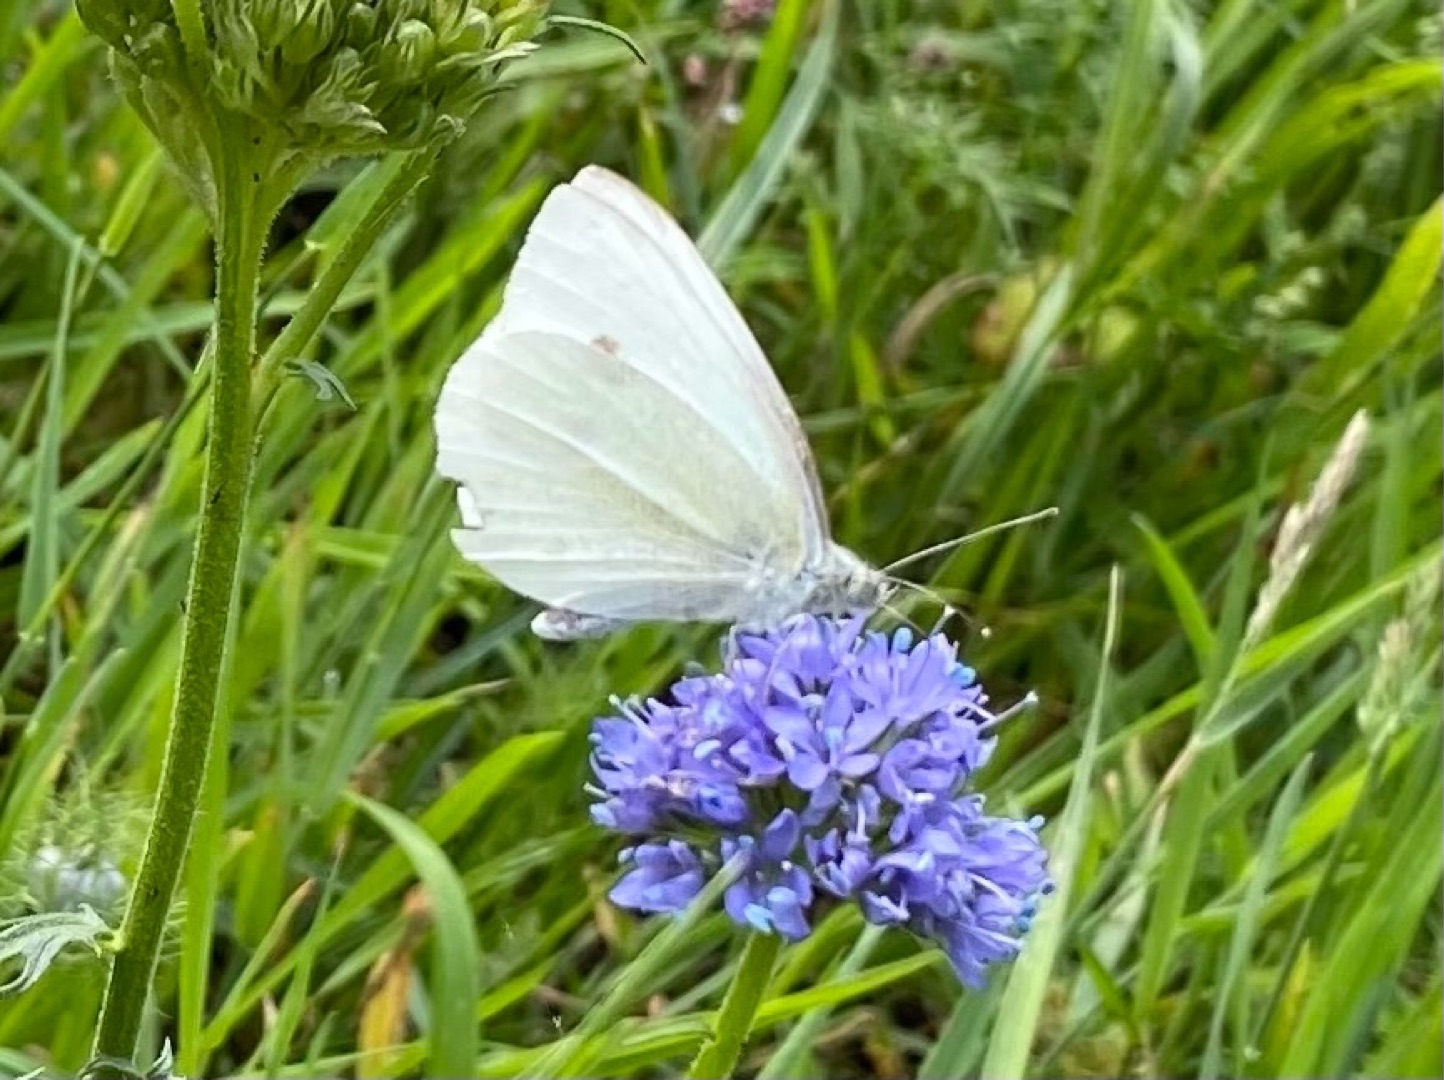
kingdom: Animalia
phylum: Arthropoda
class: Insecta
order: Lepidoptera
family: Pieridae
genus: Pieris
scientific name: Pieris rapae
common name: Lille kålsommerfugl
